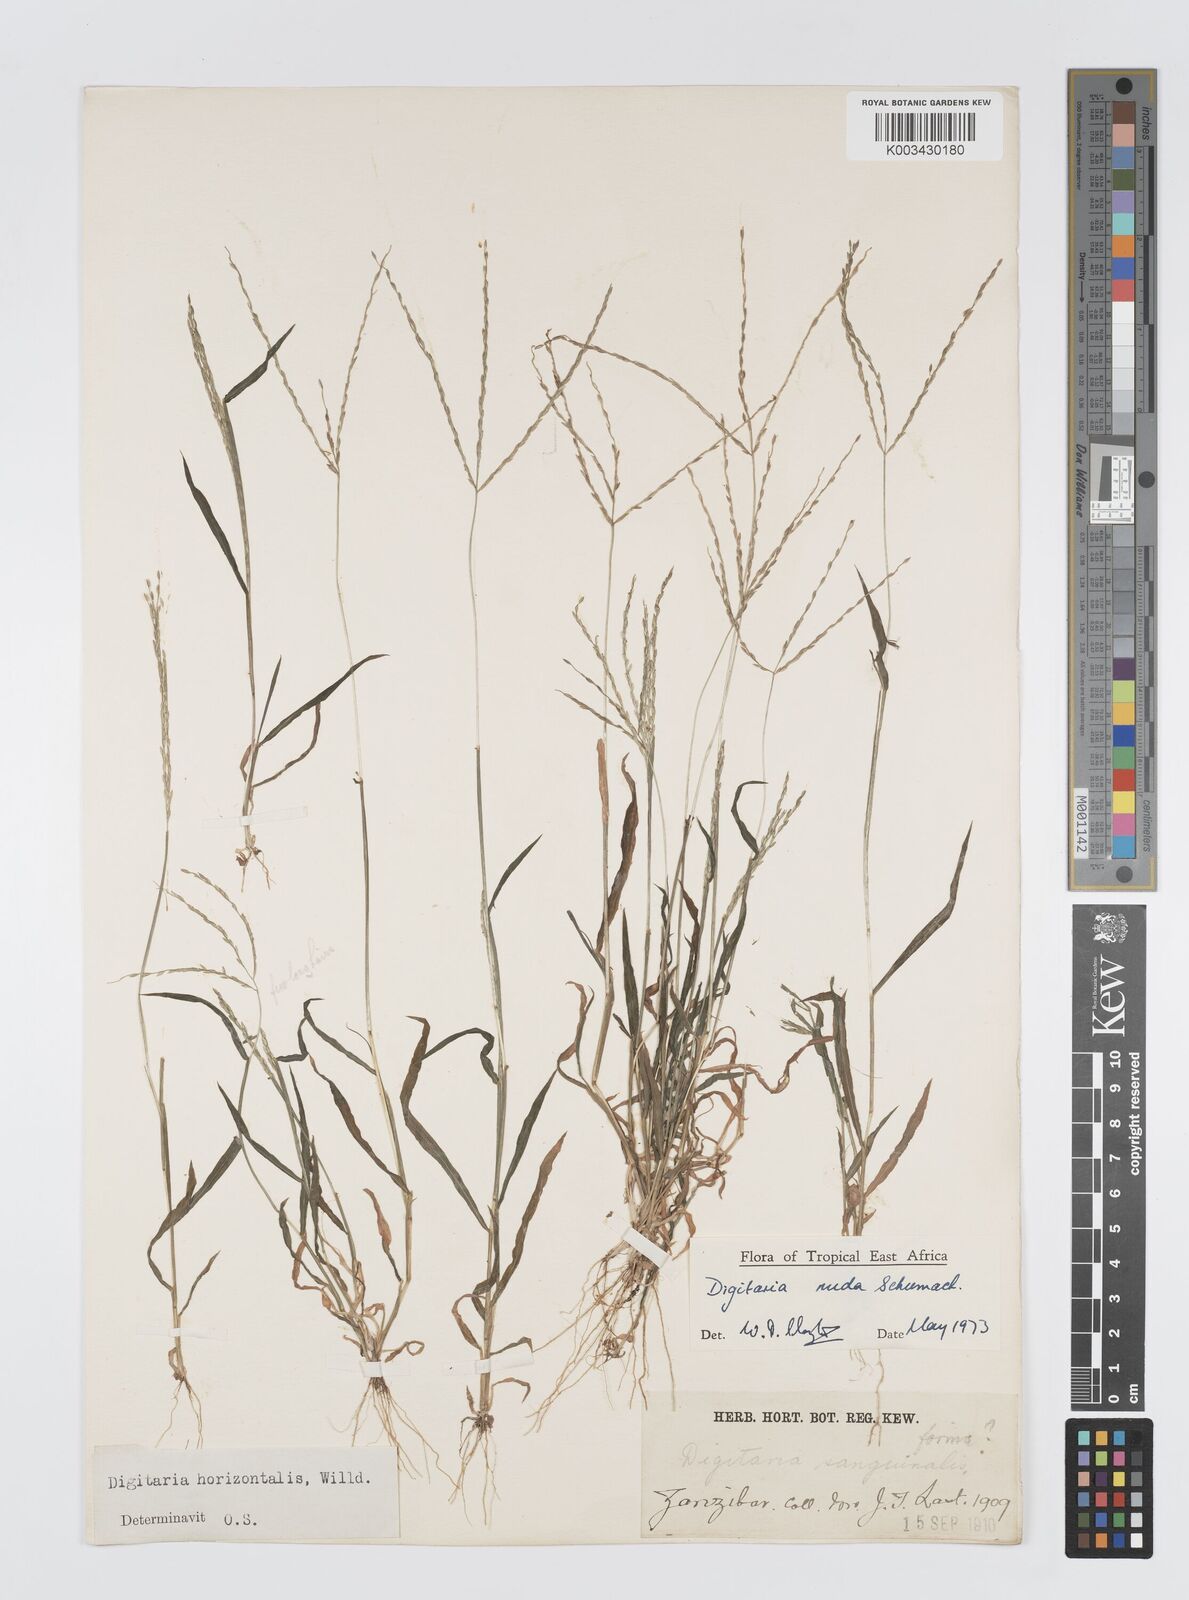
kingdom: Plantae
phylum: Tracheophyta
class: Liliopsida
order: Poales
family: Poaceae
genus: Digitaria
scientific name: Digitaria nuda
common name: Naked crabgrass
